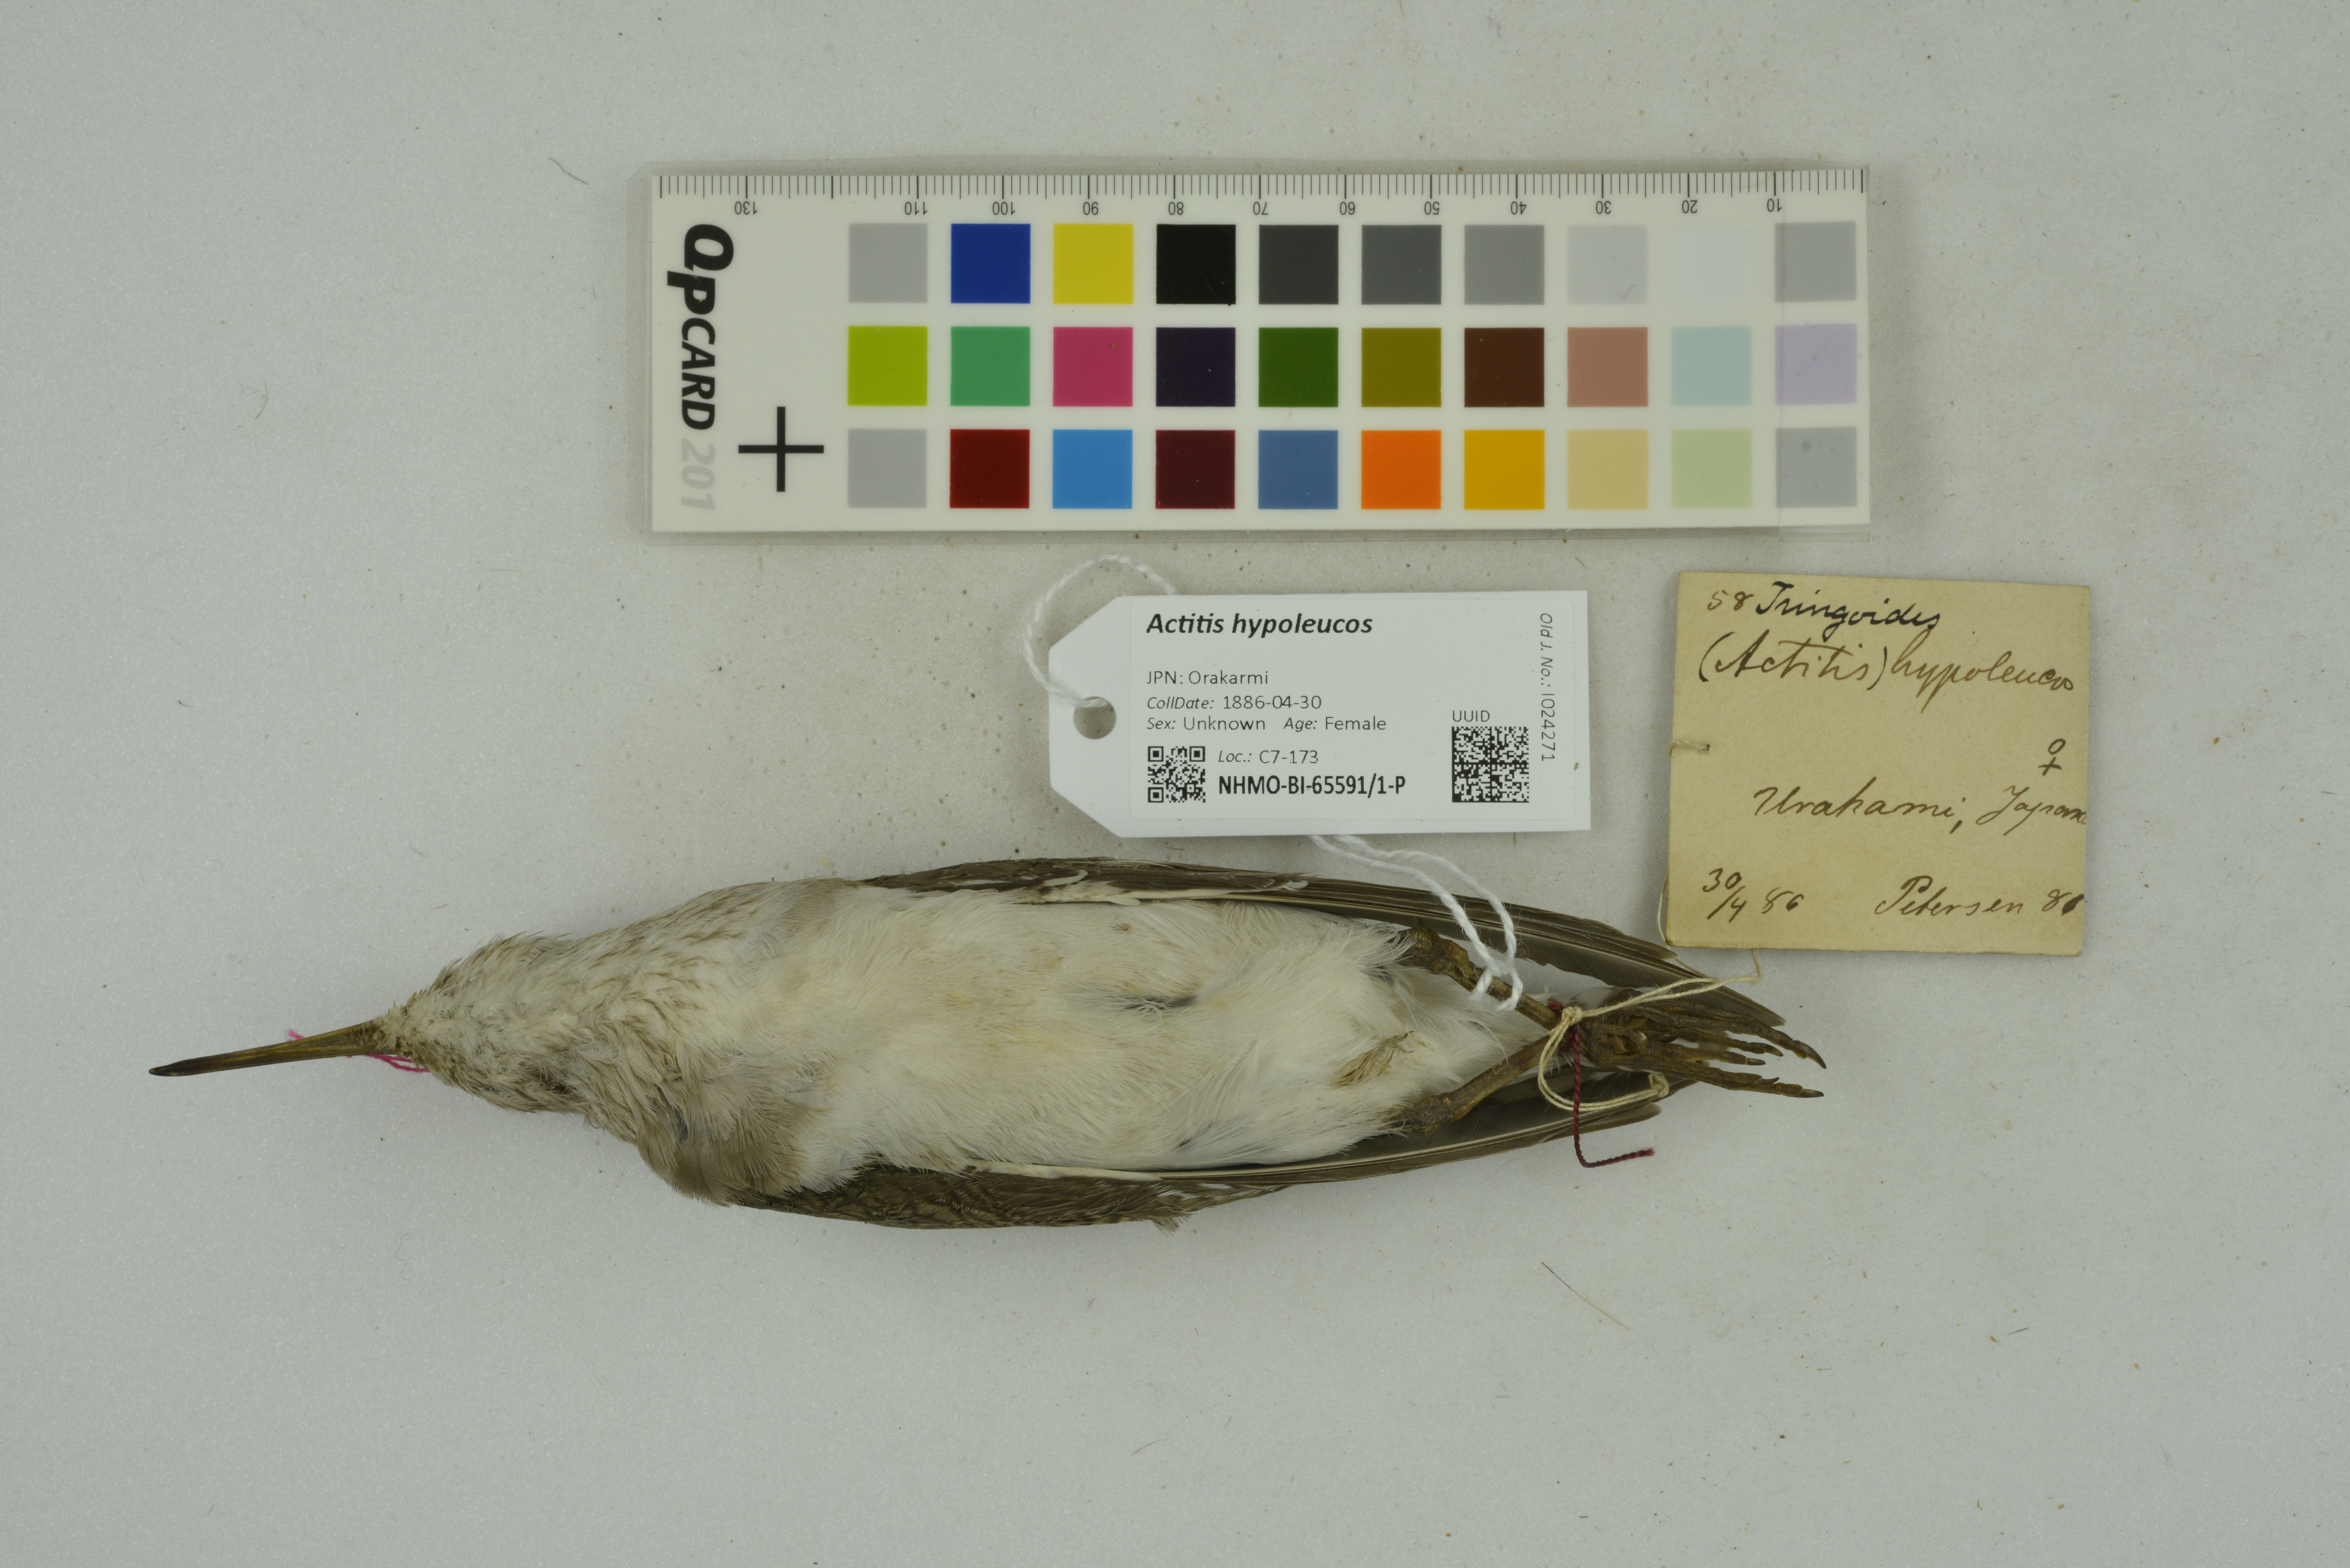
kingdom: Animalia
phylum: Chordata
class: Aves
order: Charadriiformes
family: Scolopacidae
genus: Actitis
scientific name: Actitis hypoleucos
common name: Common sandpiper
